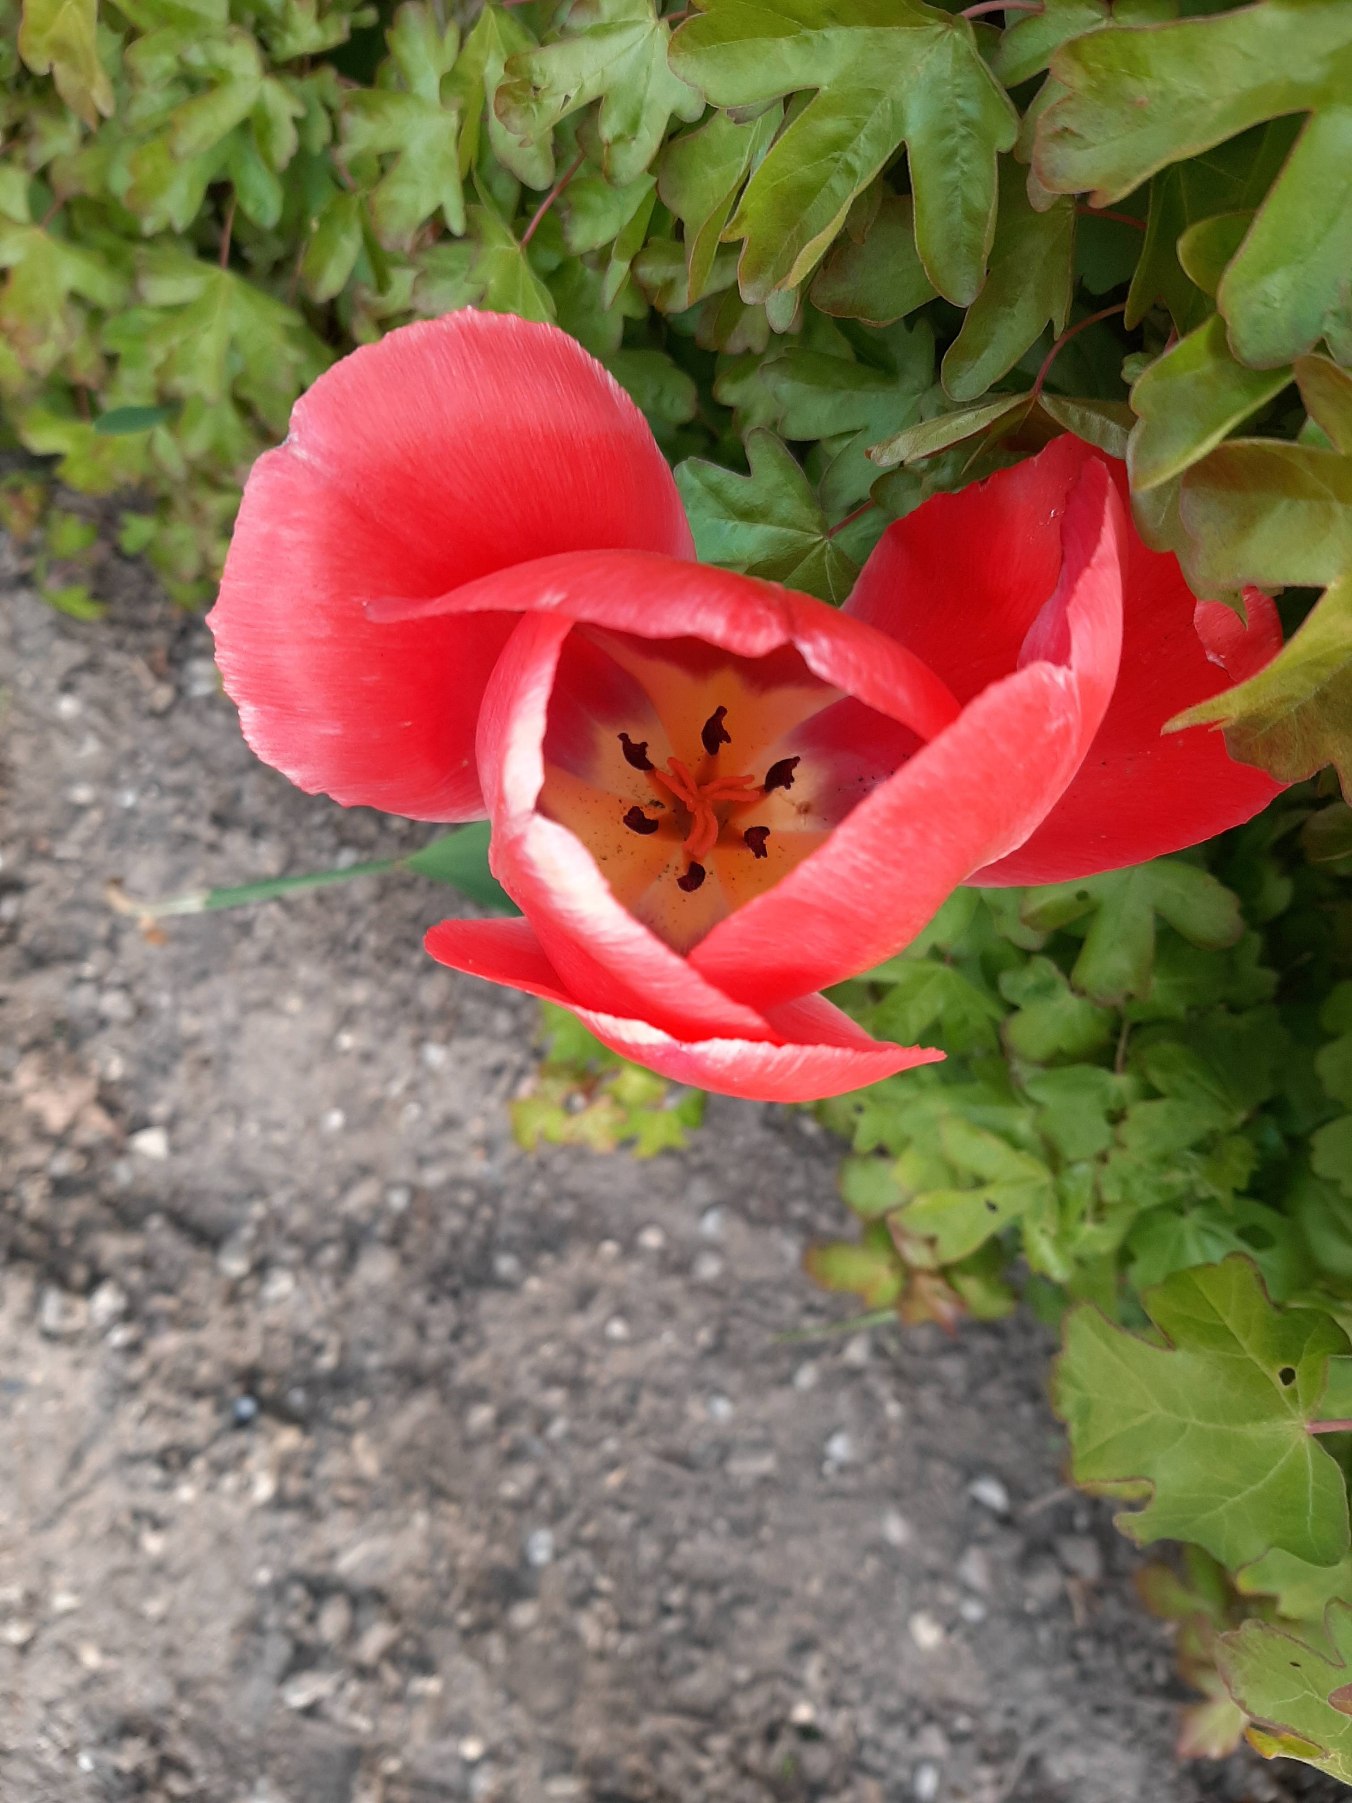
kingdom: Plantae
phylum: Tracheophyta
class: Liliopsida
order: Liliales
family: Liliaceae
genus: Tulipa
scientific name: Tulipa gesneriana
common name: Have-tulipan
